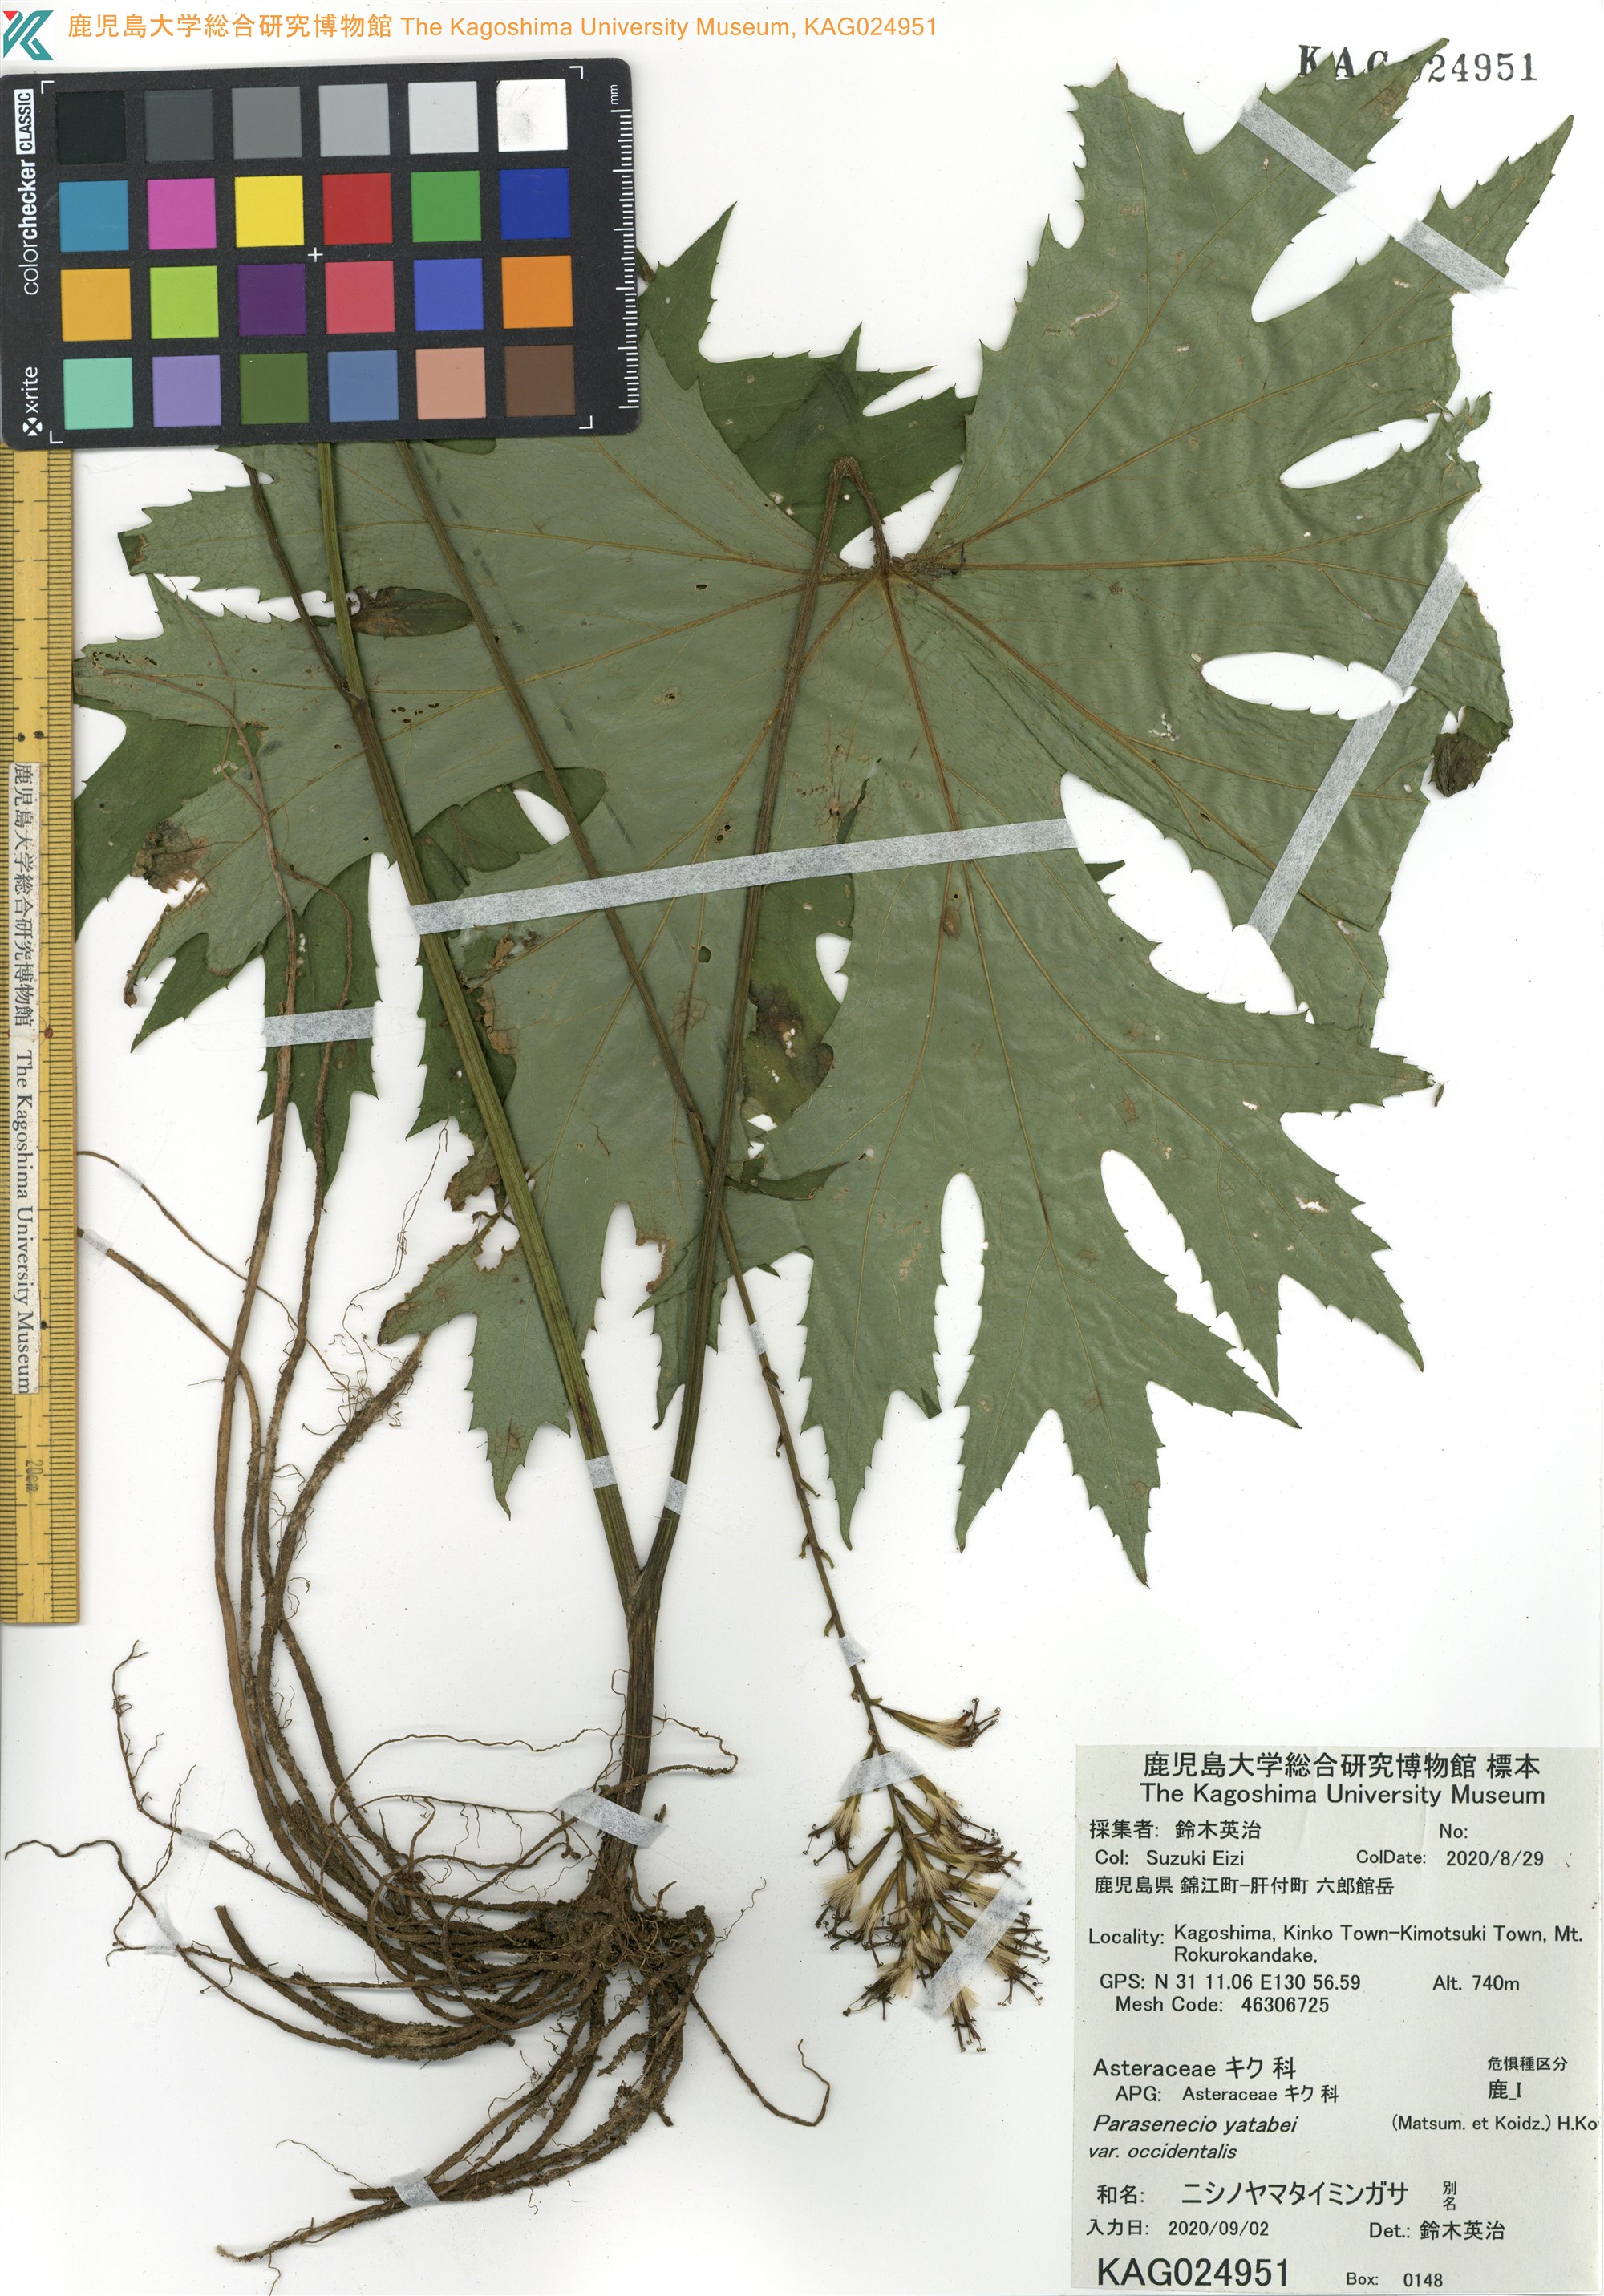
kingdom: Plantae
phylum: Tracheophyta
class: Magnoliopsida
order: Asterales
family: Asteraceae
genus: Taimingasa
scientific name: Taimingasa yatabei
